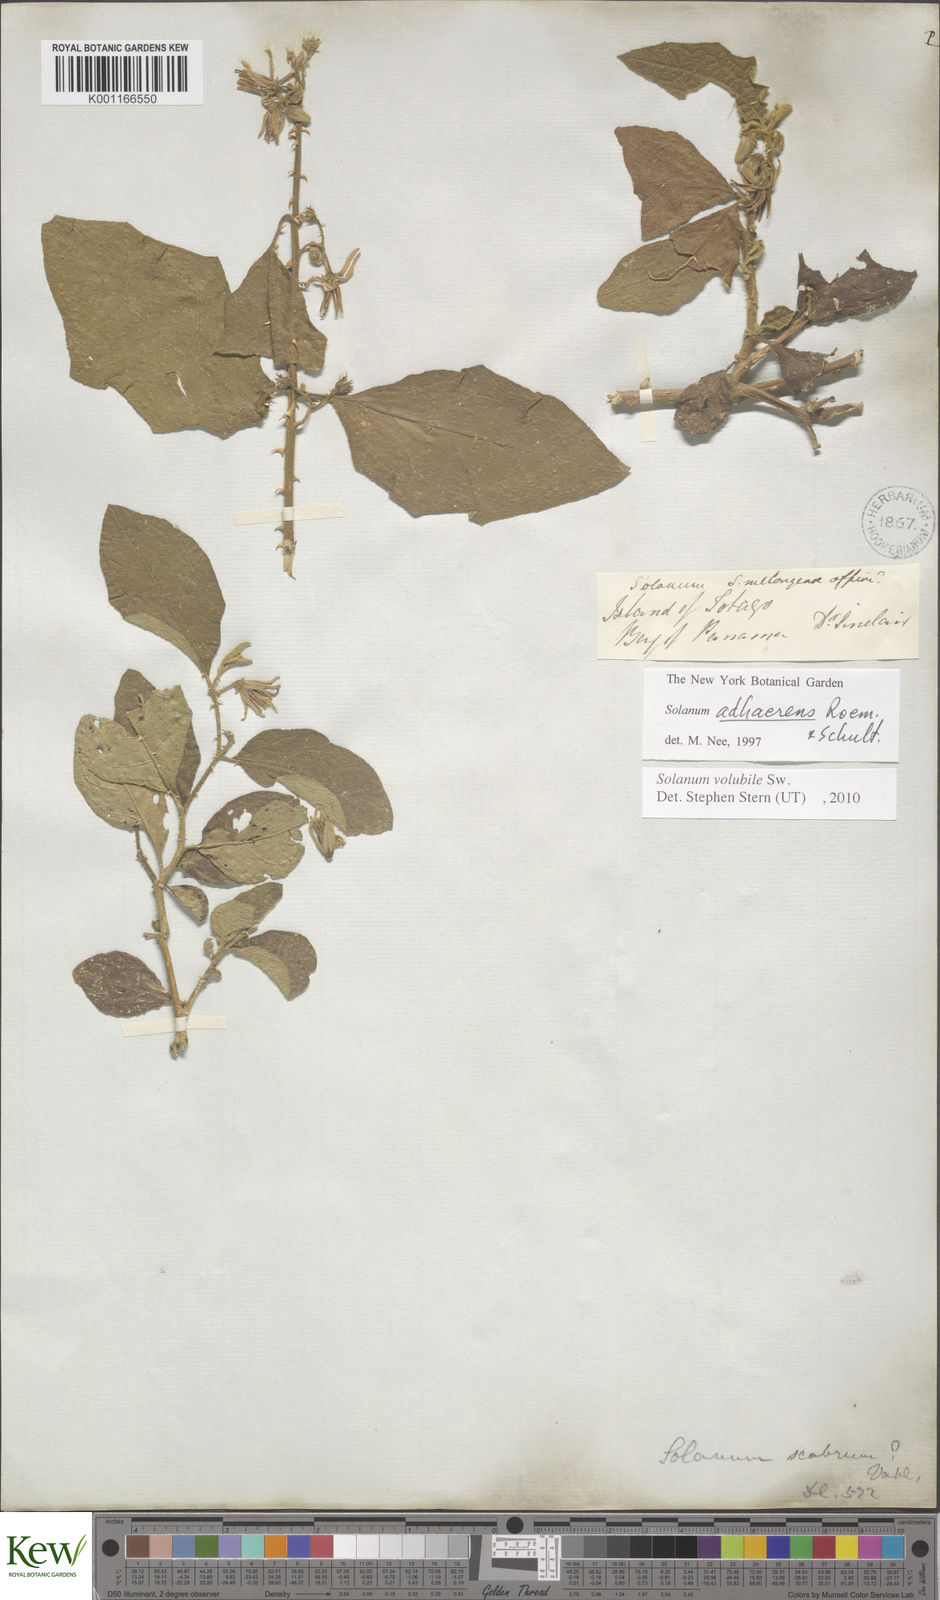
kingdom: Plantae
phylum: Tracheophyta
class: Magnoliopsida
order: Solanales
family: Solanaceae
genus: Solanum
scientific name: Solanum volubile
